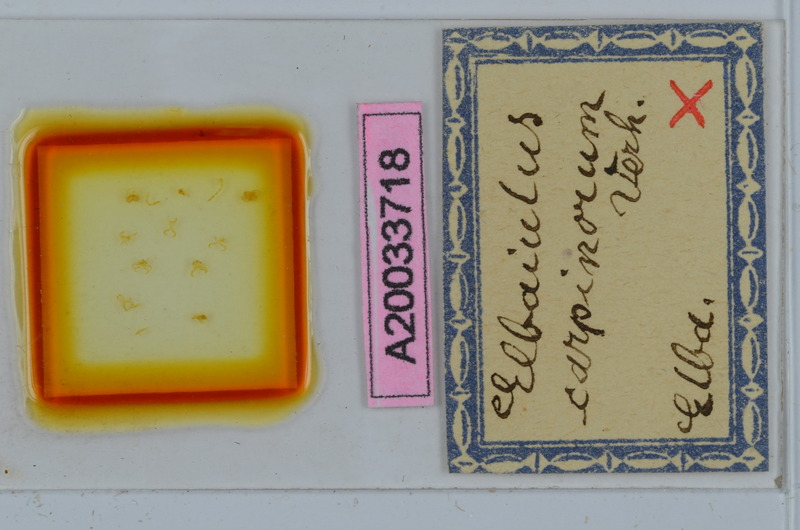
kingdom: Animalia
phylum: Arthropoda
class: Diplopoda
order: Julida
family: Julidae
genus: Elbaiulus
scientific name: Elbaiulus carpinorum
